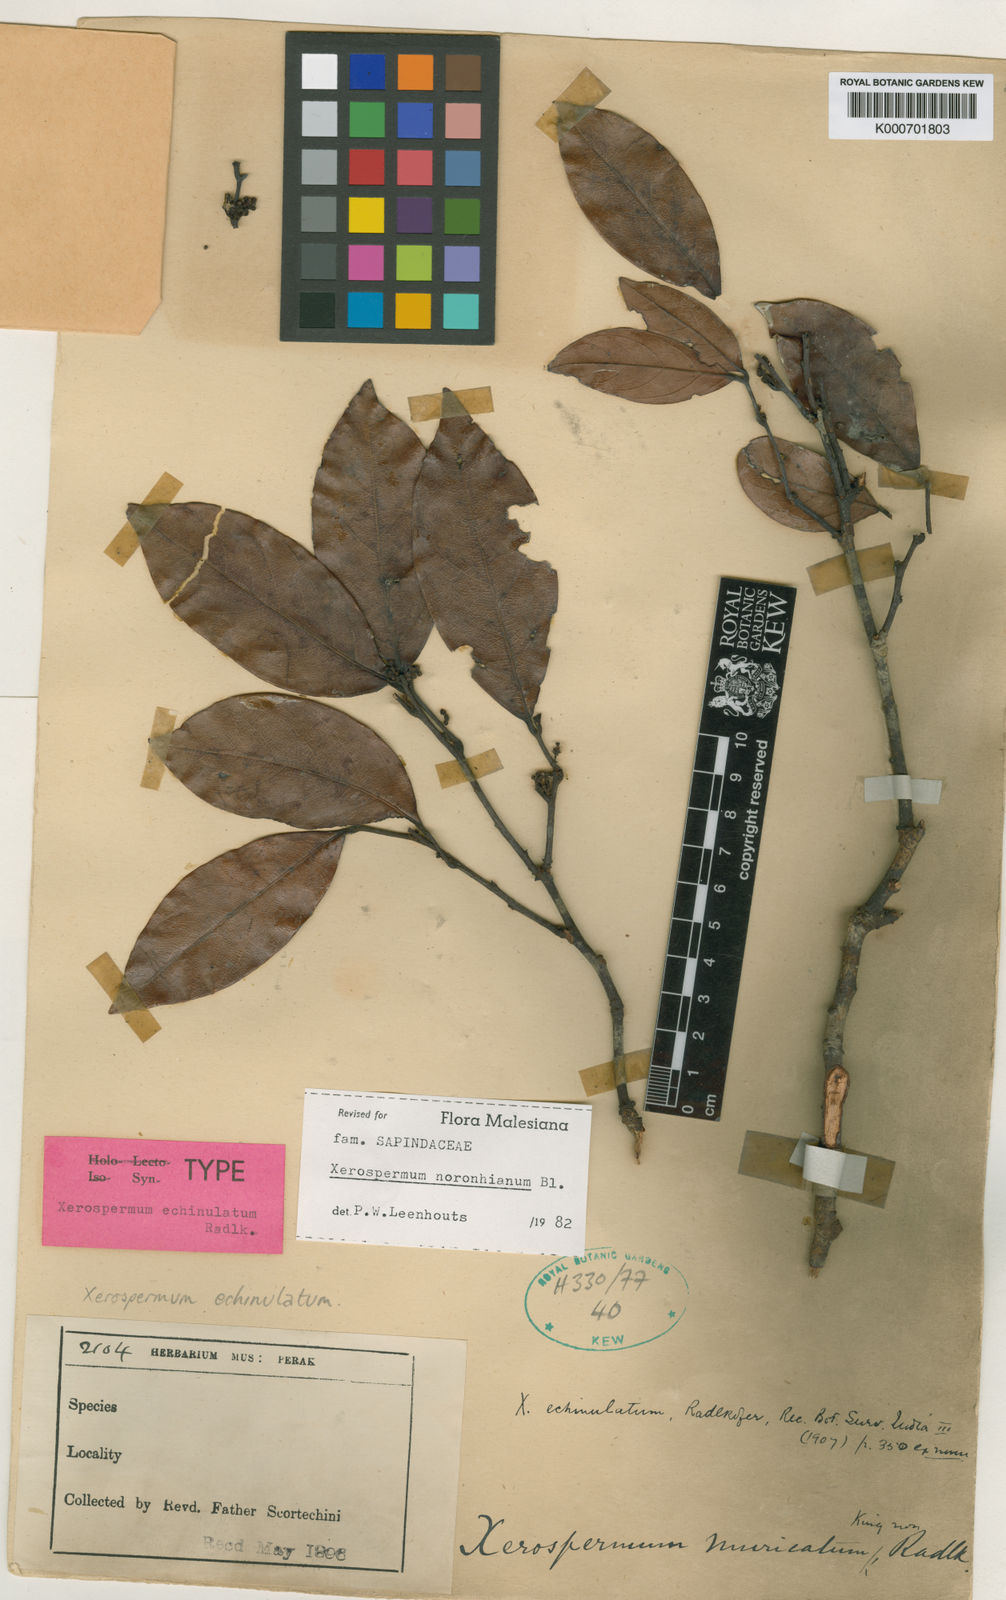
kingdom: Plantae
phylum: Tracheophyta
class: Magnoliopsida
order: Sapindales
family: Sapindaceae
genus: Xerospermum
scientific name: Xerospermum noronhianum
